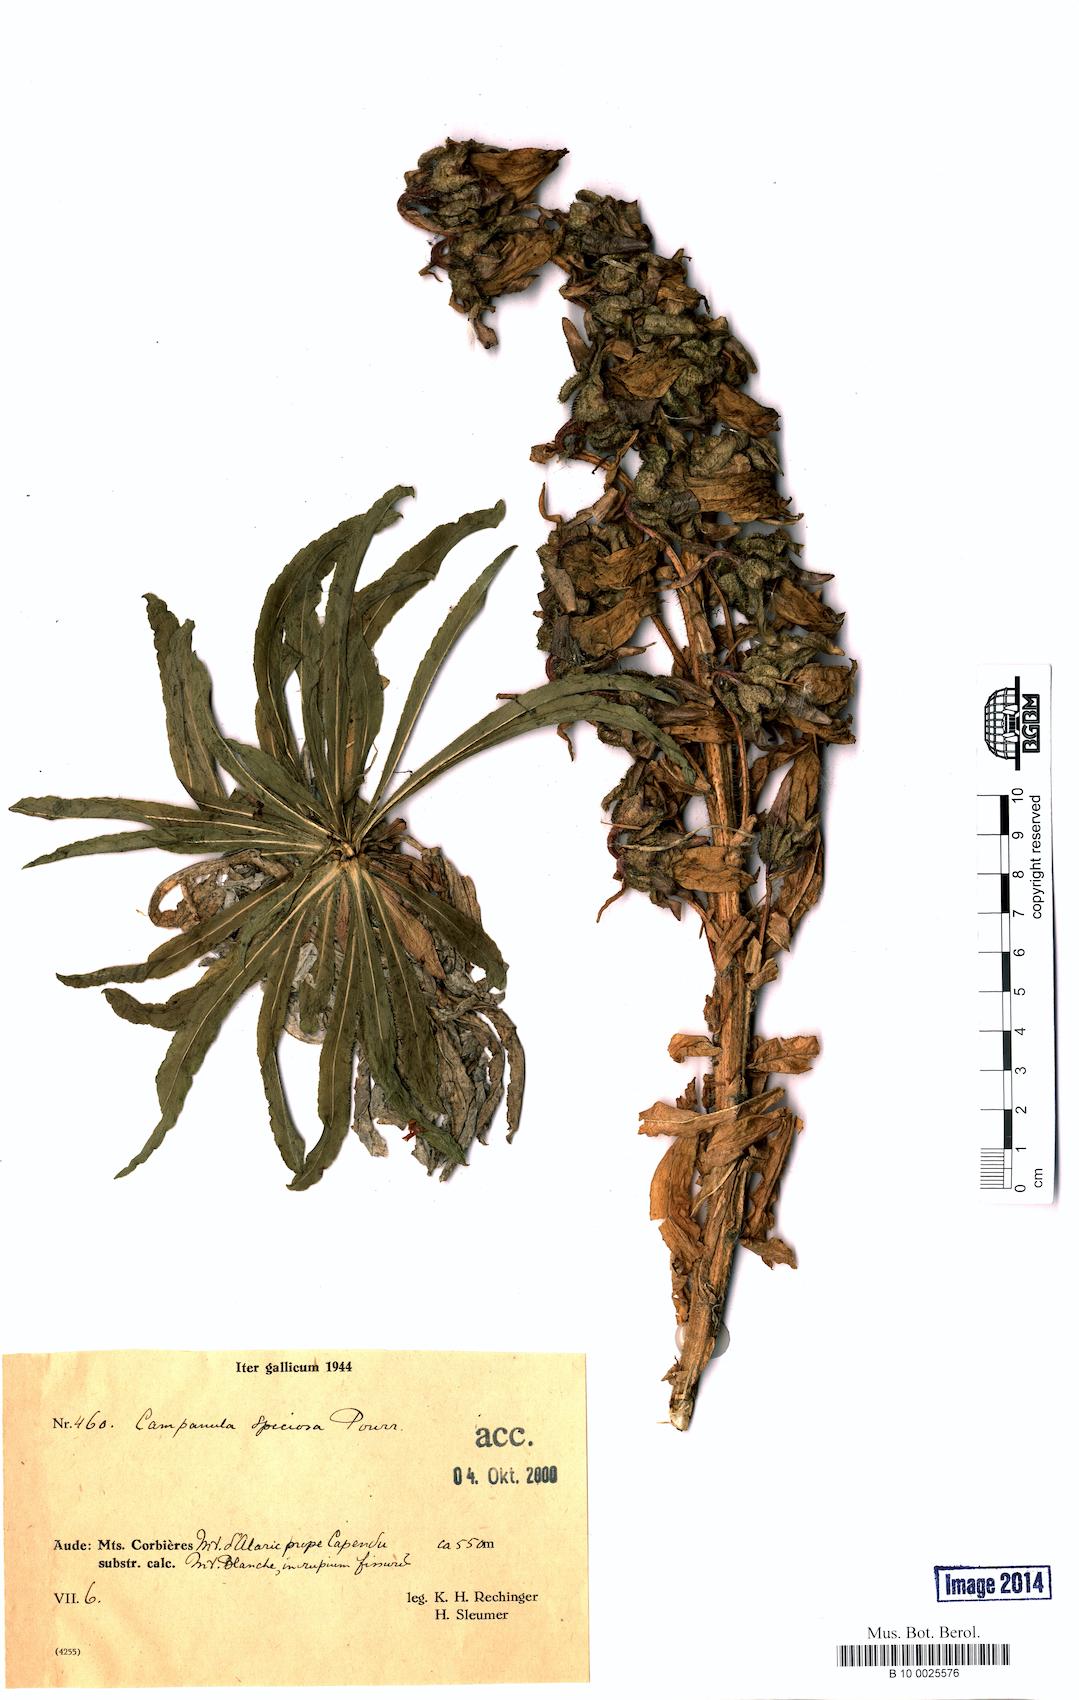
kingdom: Plantae
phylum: Tracheophyta
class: Magnoliopsida
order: Asterales
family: Campanulaceae
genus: Campanula
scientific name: Campanula speciosa
